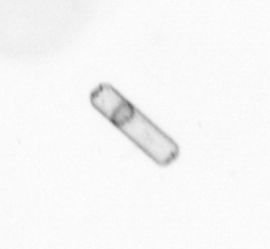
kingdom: Chromista
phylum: Ochrophyta
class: Bacillariophyceae
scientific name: Bacillariophyceae
